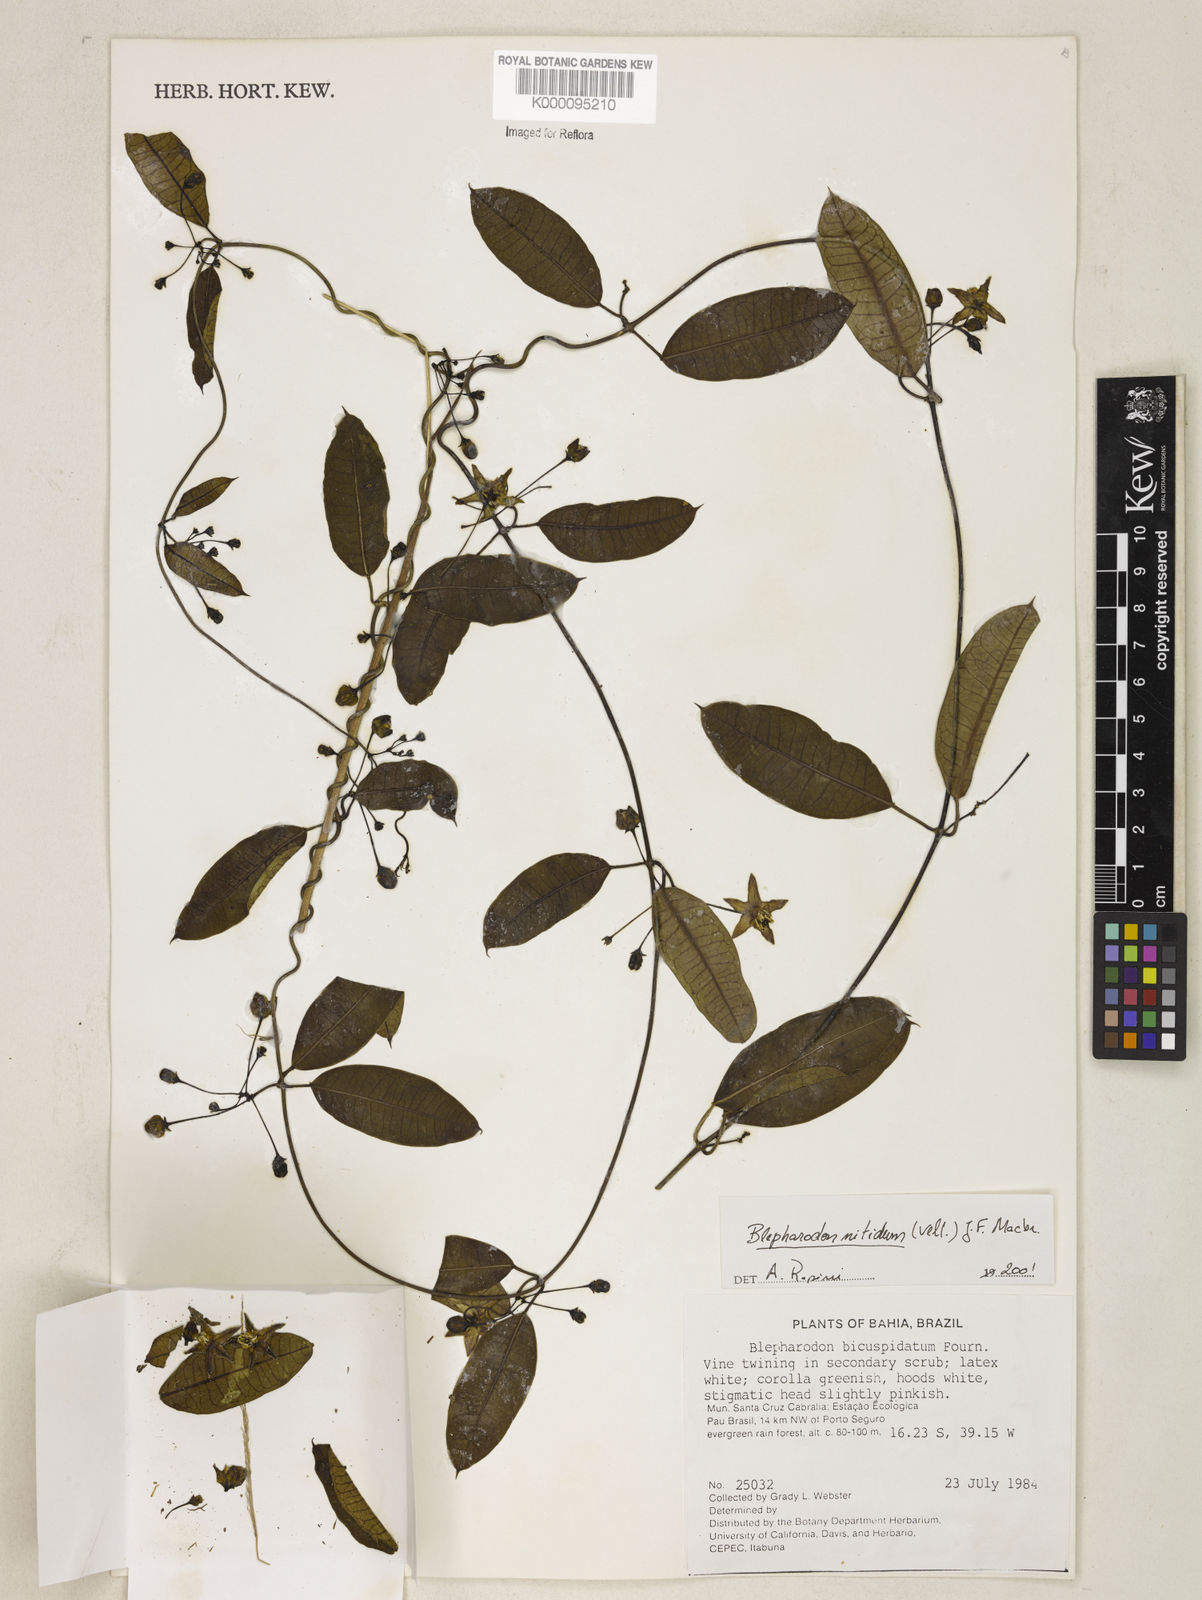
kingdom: Plantae
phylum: Tracheophyta
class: Magnoliopsida
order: Gentianales
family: Apocynaceae
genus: Blepharodon
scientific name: Blepharodon pictum
